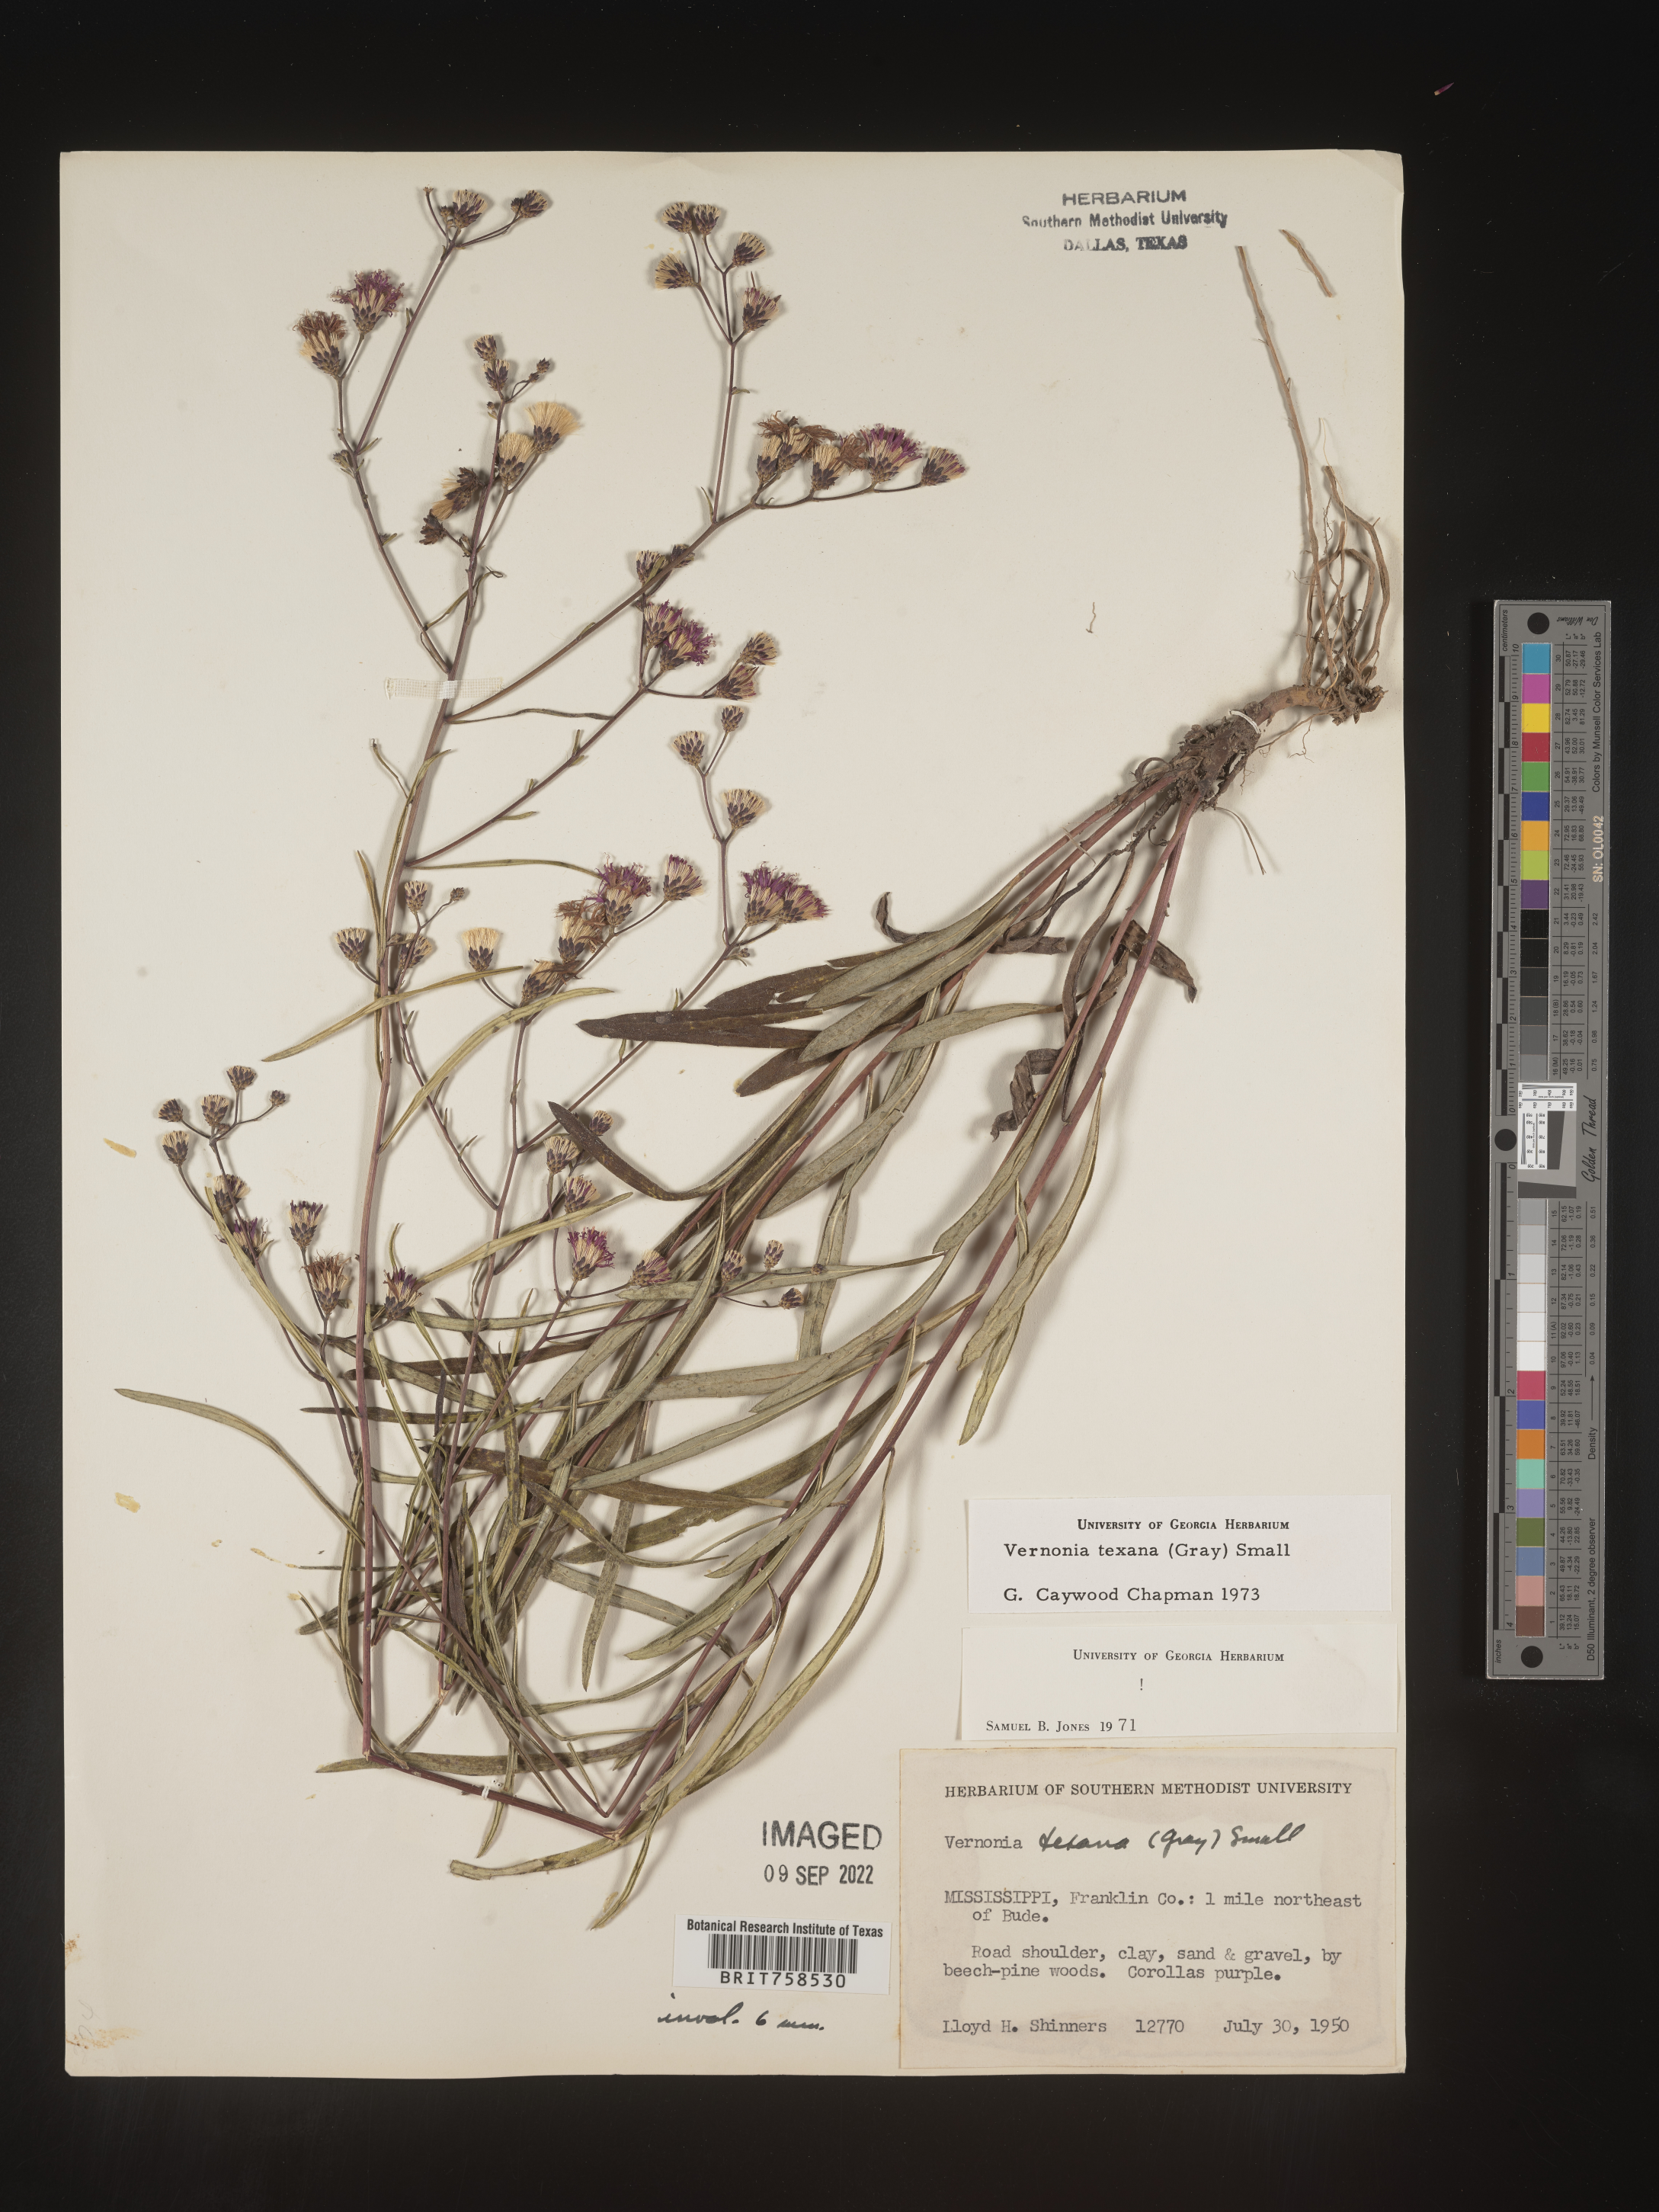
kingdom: Plantae
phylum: Tracheophyta
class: Magnoliopsida
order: Asterales
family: Asteraceae
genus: Vernonia
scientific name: Vernonia texana
